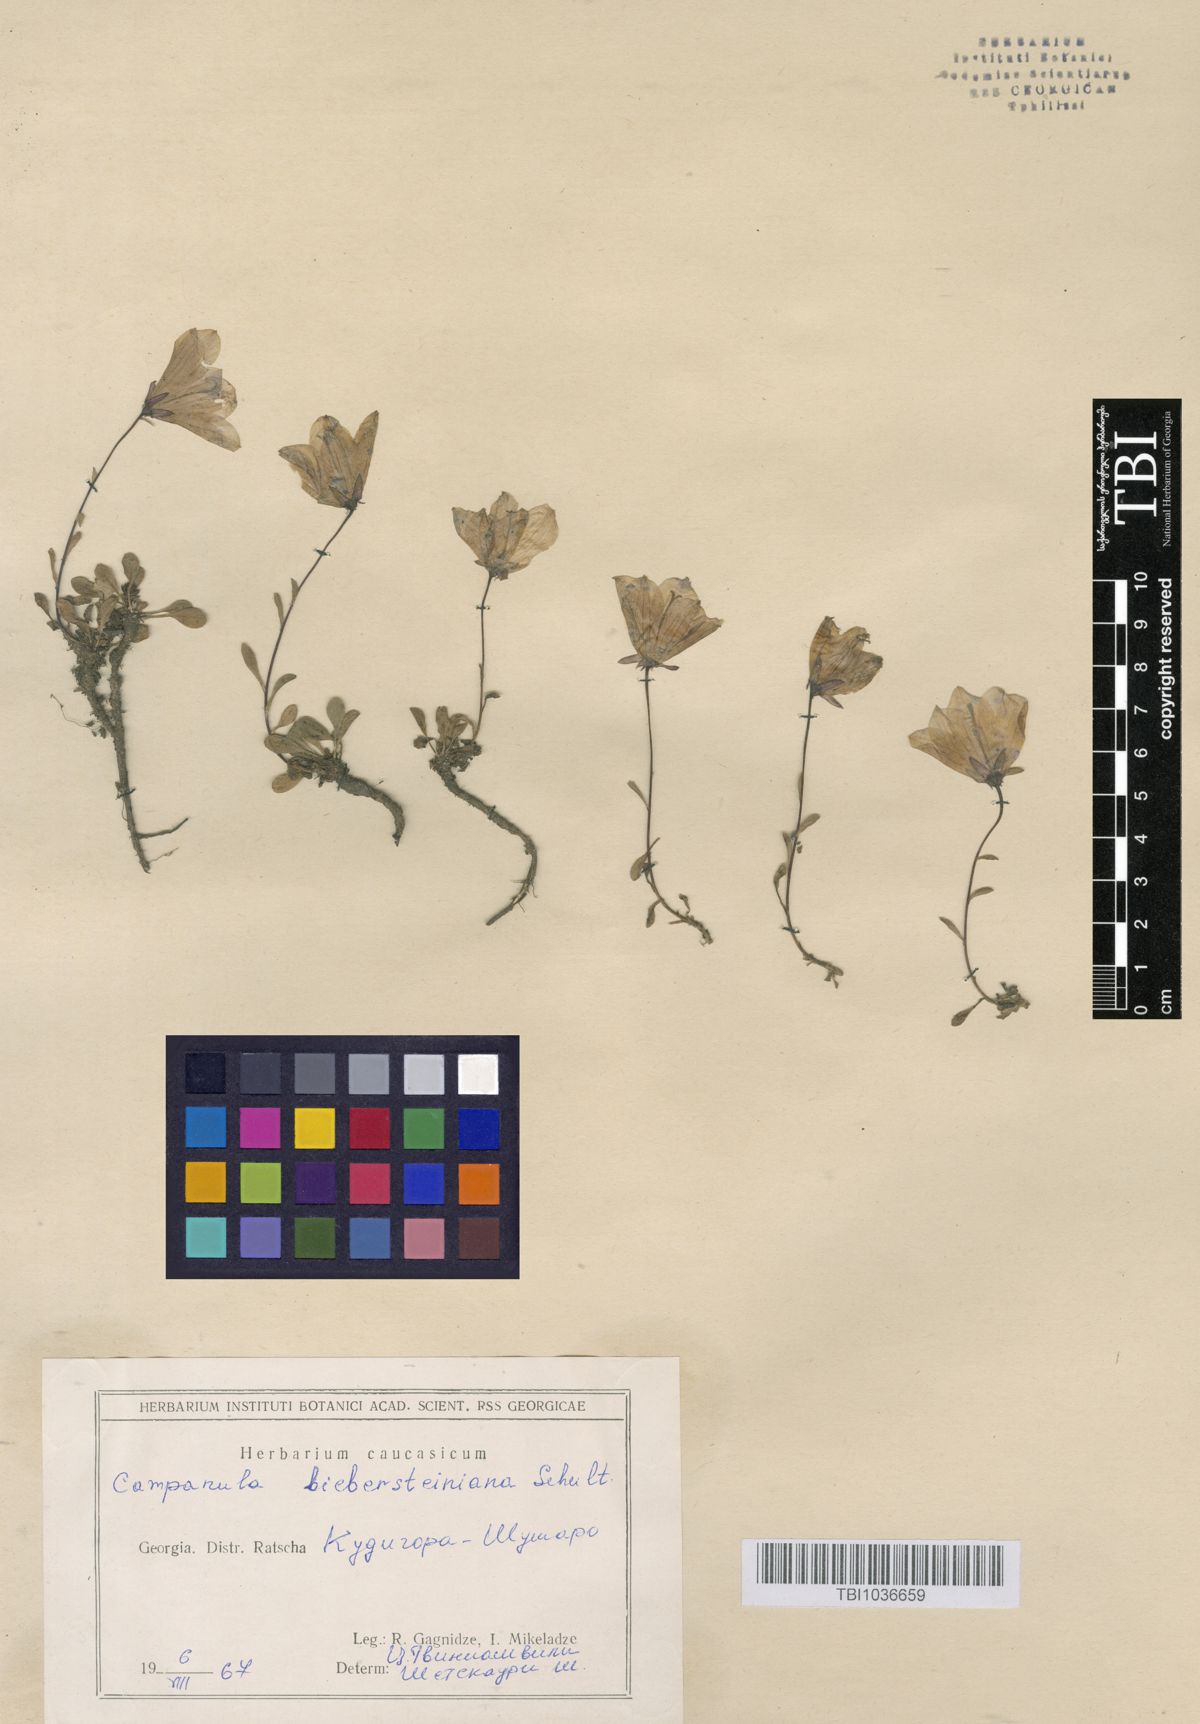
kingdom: Plantae
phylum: Tracheophyta
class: Magnoliopsida
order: Asterales
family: Campanulaceae
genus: Campanula
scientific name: Campanula tridentata
